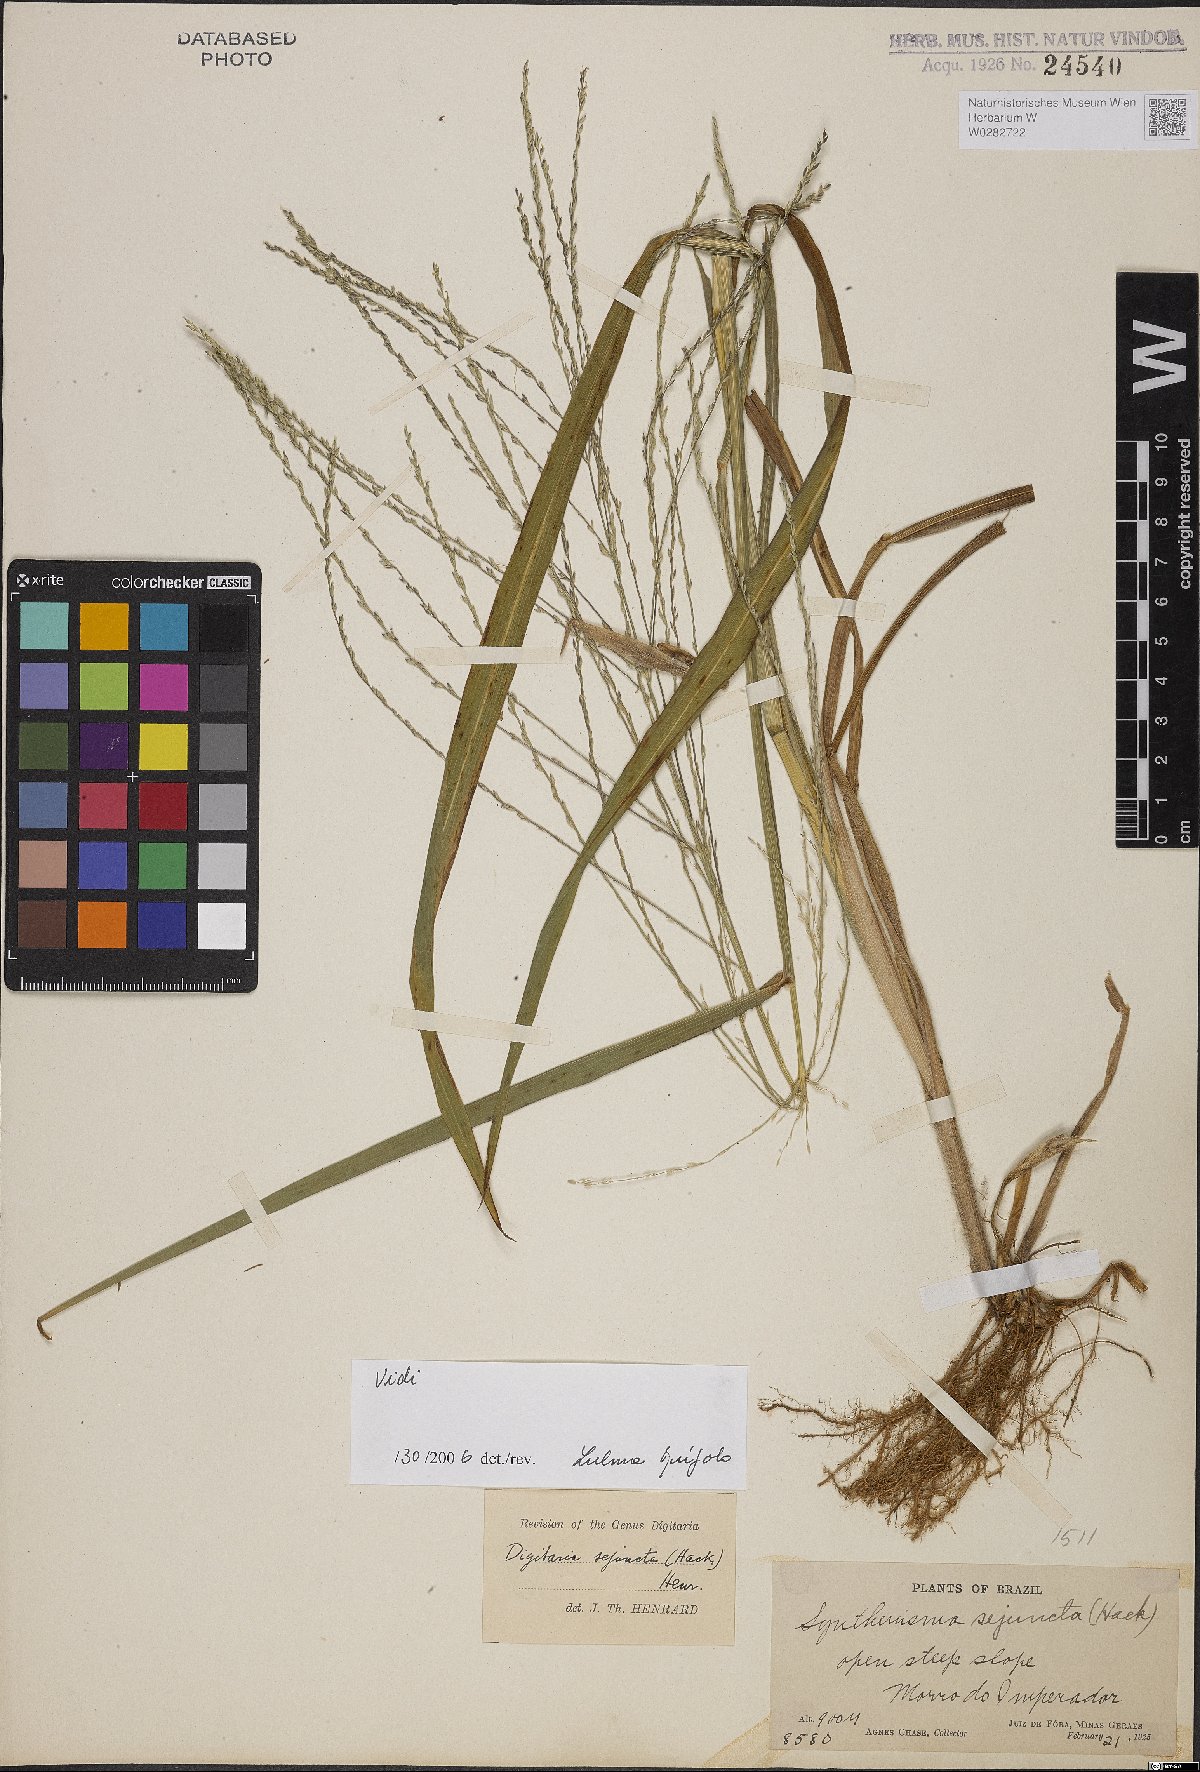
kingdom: Plantae
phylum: Tracheophyta
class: Liliopsida
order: Poales
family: Poaceae
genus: Digitaria
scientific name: Digitaria sejuncta
